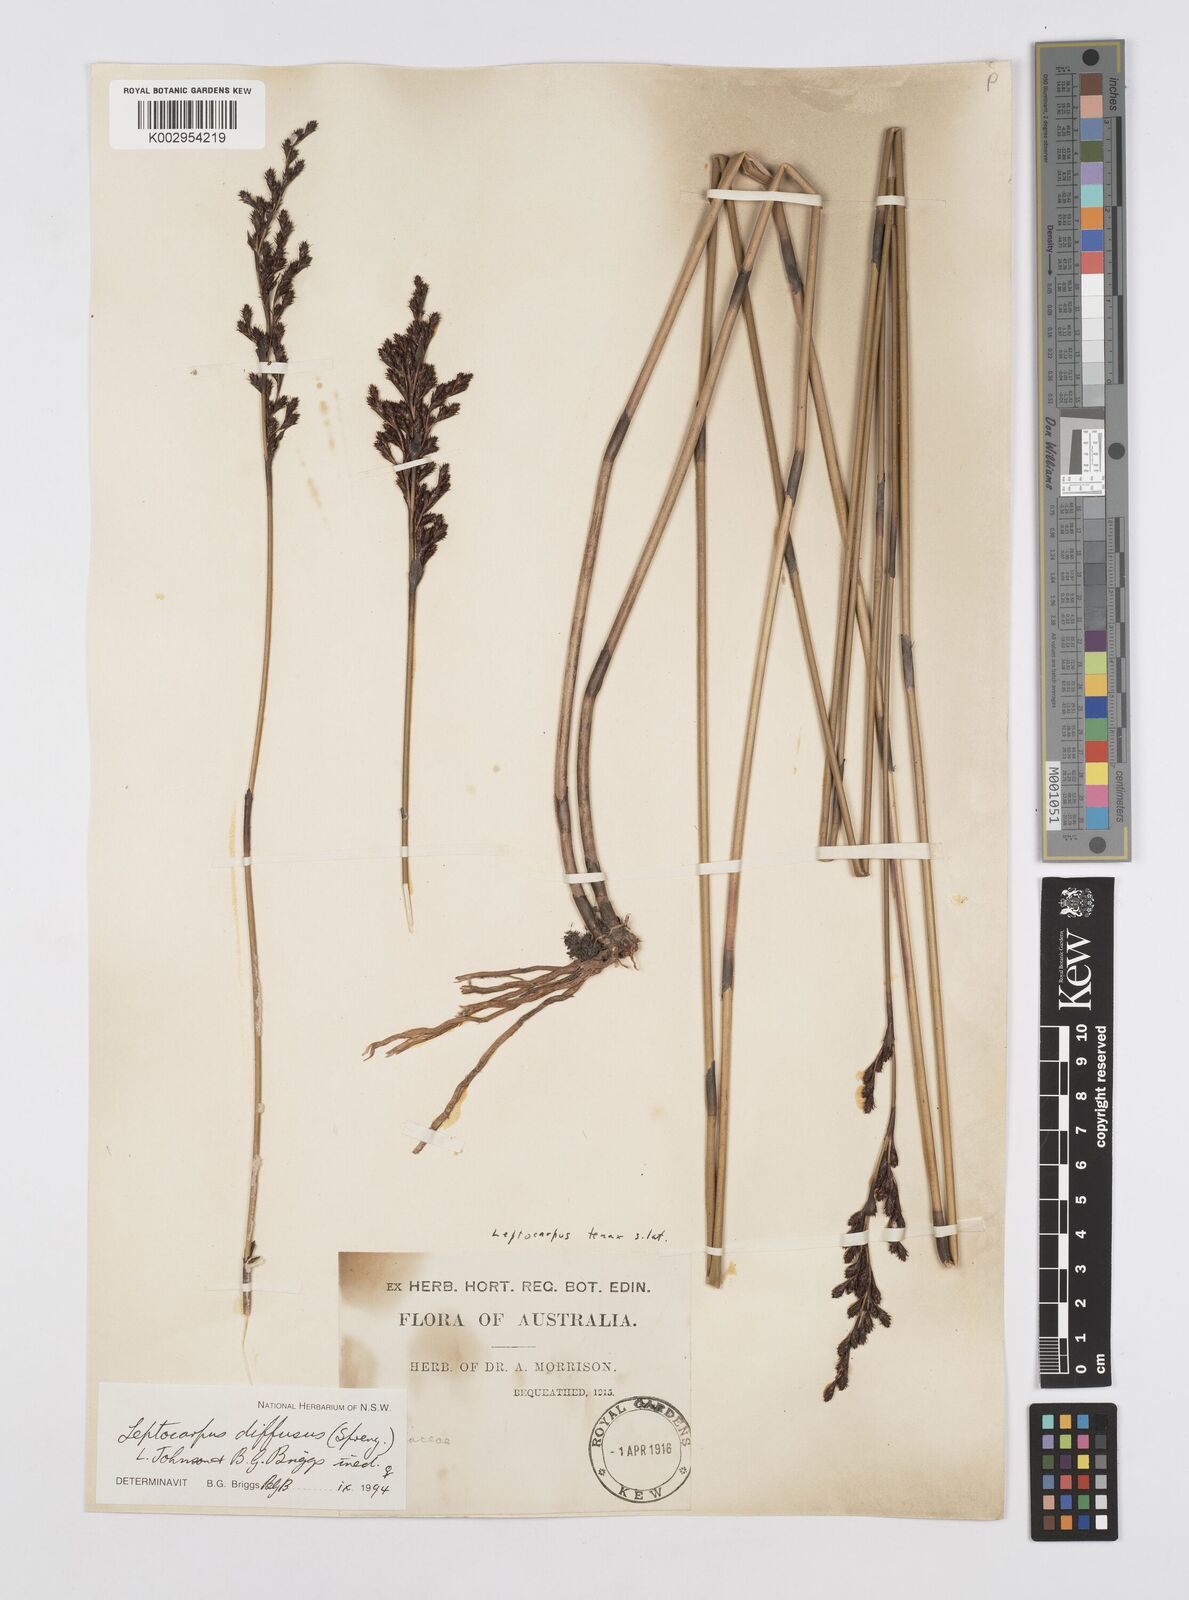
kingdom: Plantae
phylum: Tracheophyta
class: Liliopsida
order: Poales
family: Restionaceae
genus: Leptocarpus
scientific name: Leptocarpus laxus
